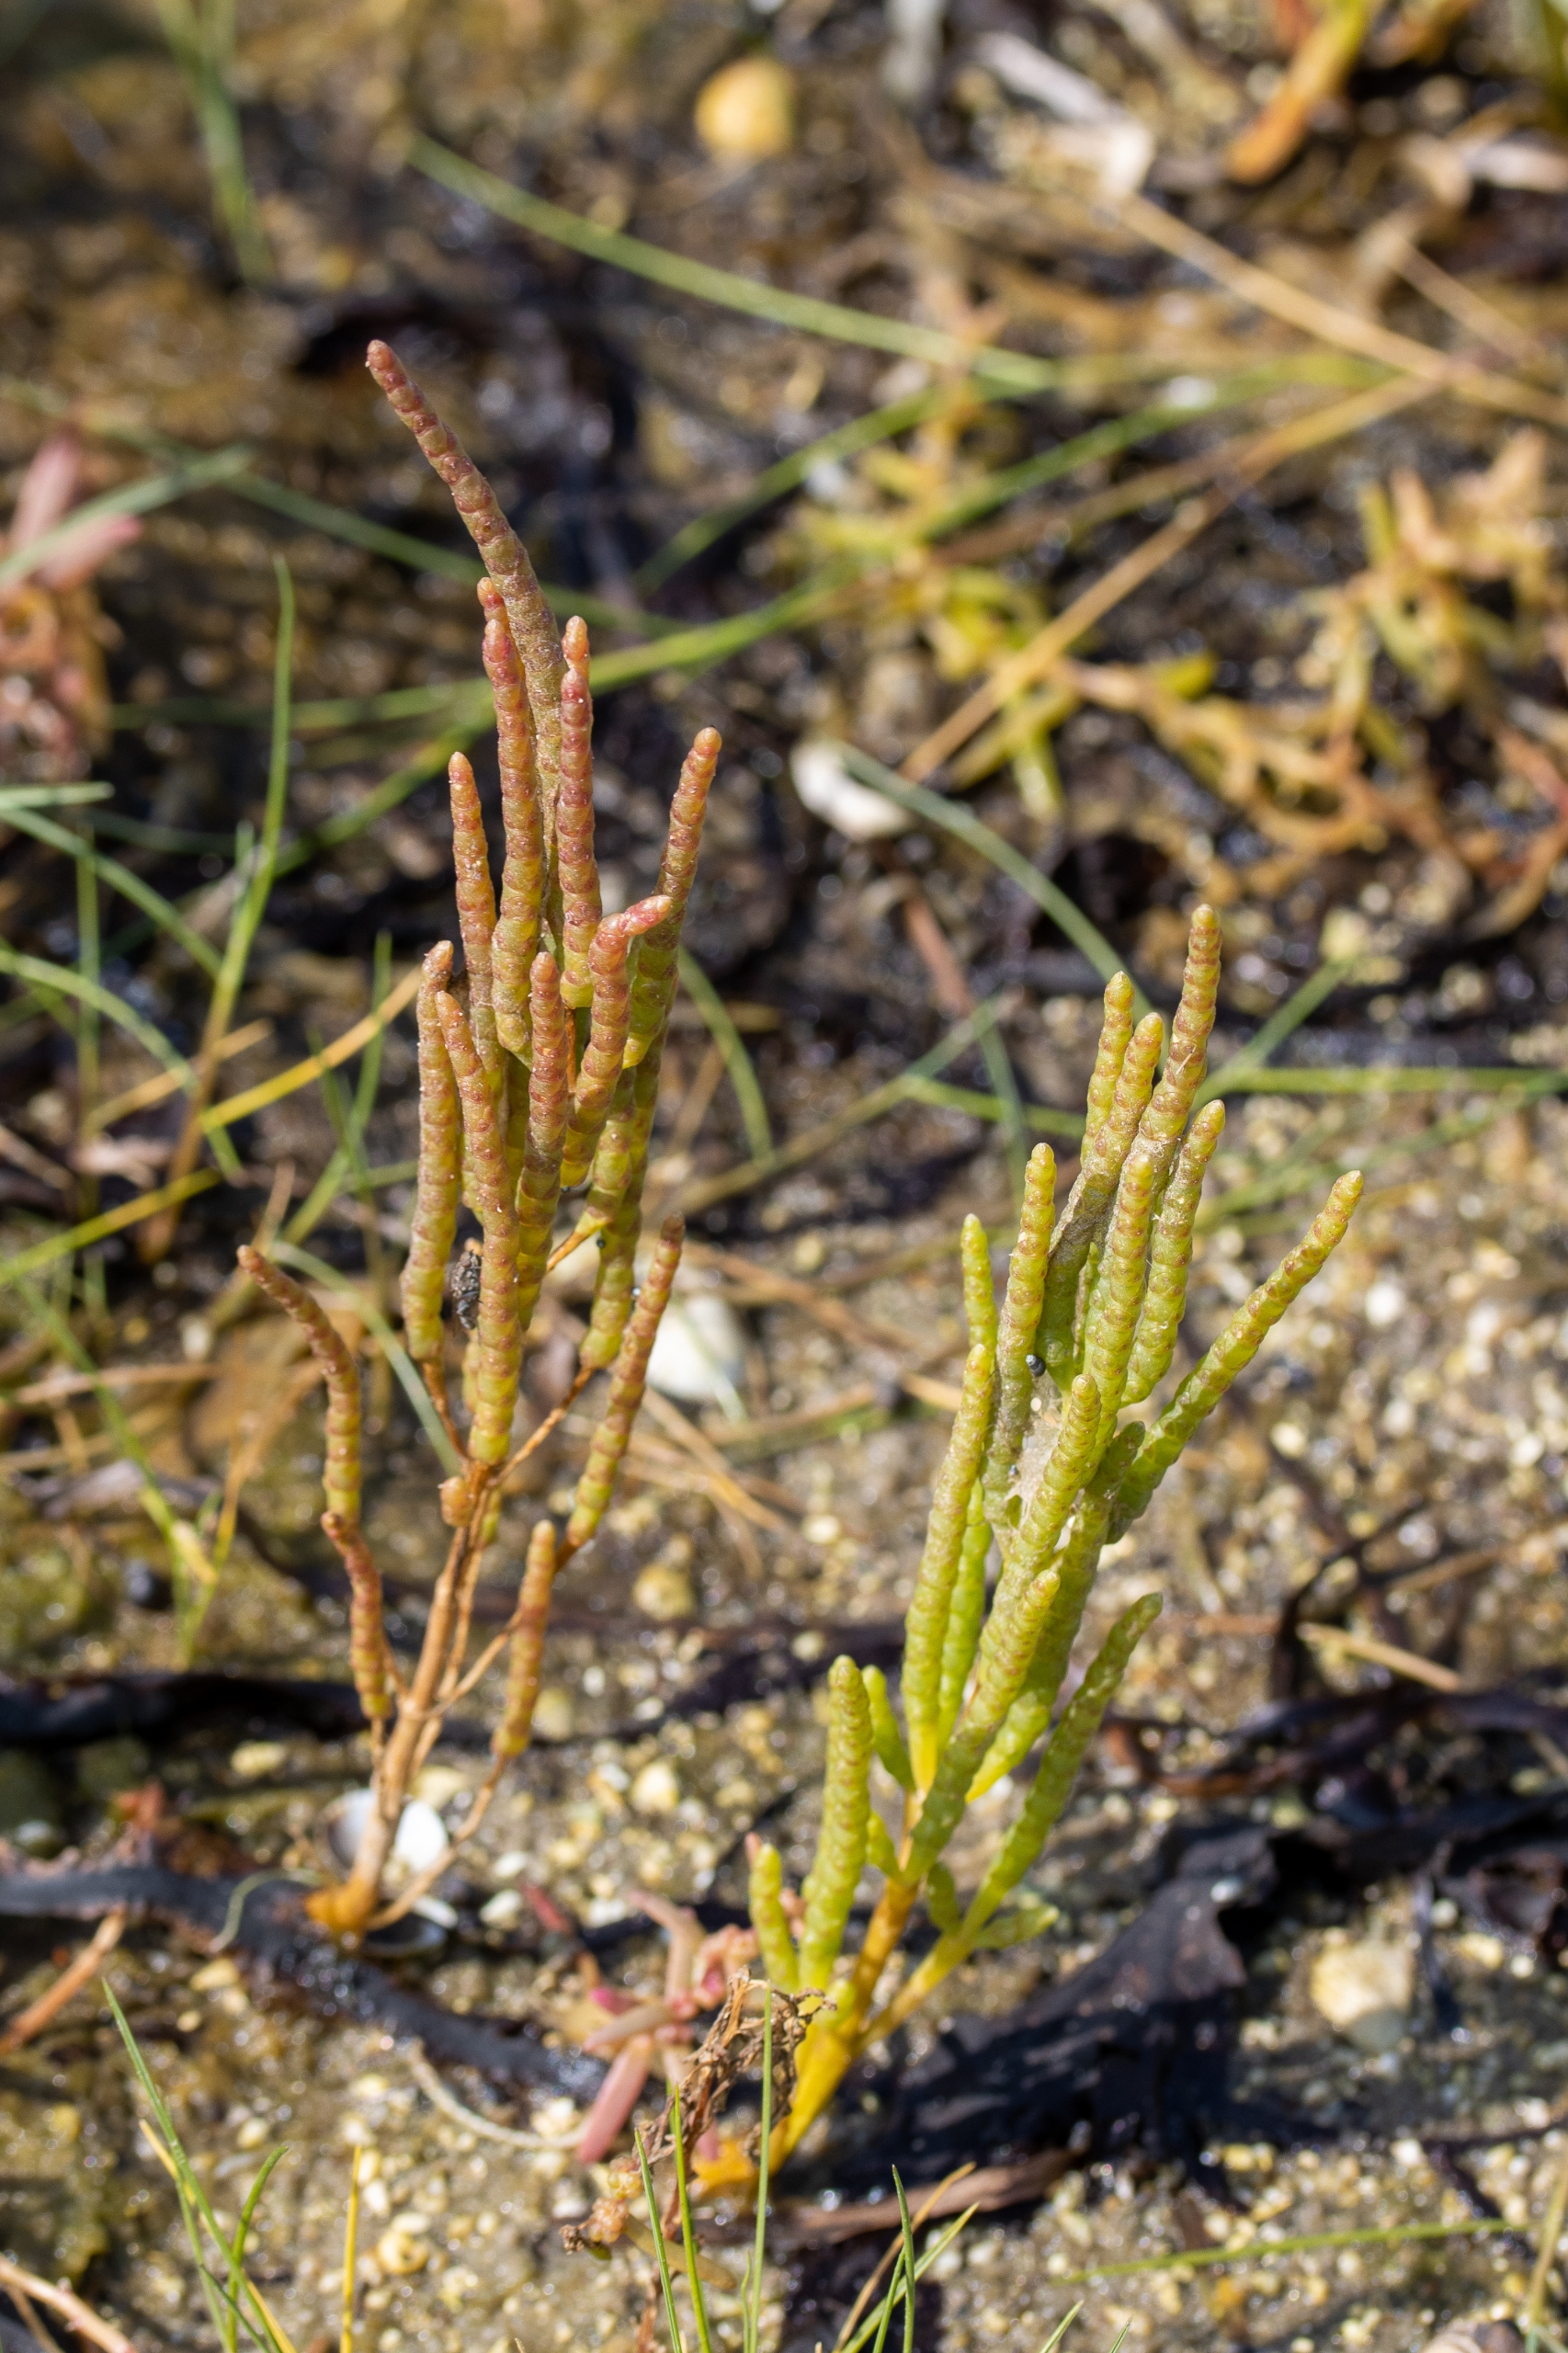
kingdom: Plantae
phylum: Tracheophyta
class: Magnoliopsida
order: Caryophyllales
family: Amaranthaceae
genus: Salicornia
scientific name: Salicornia
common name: Vade-salturt
